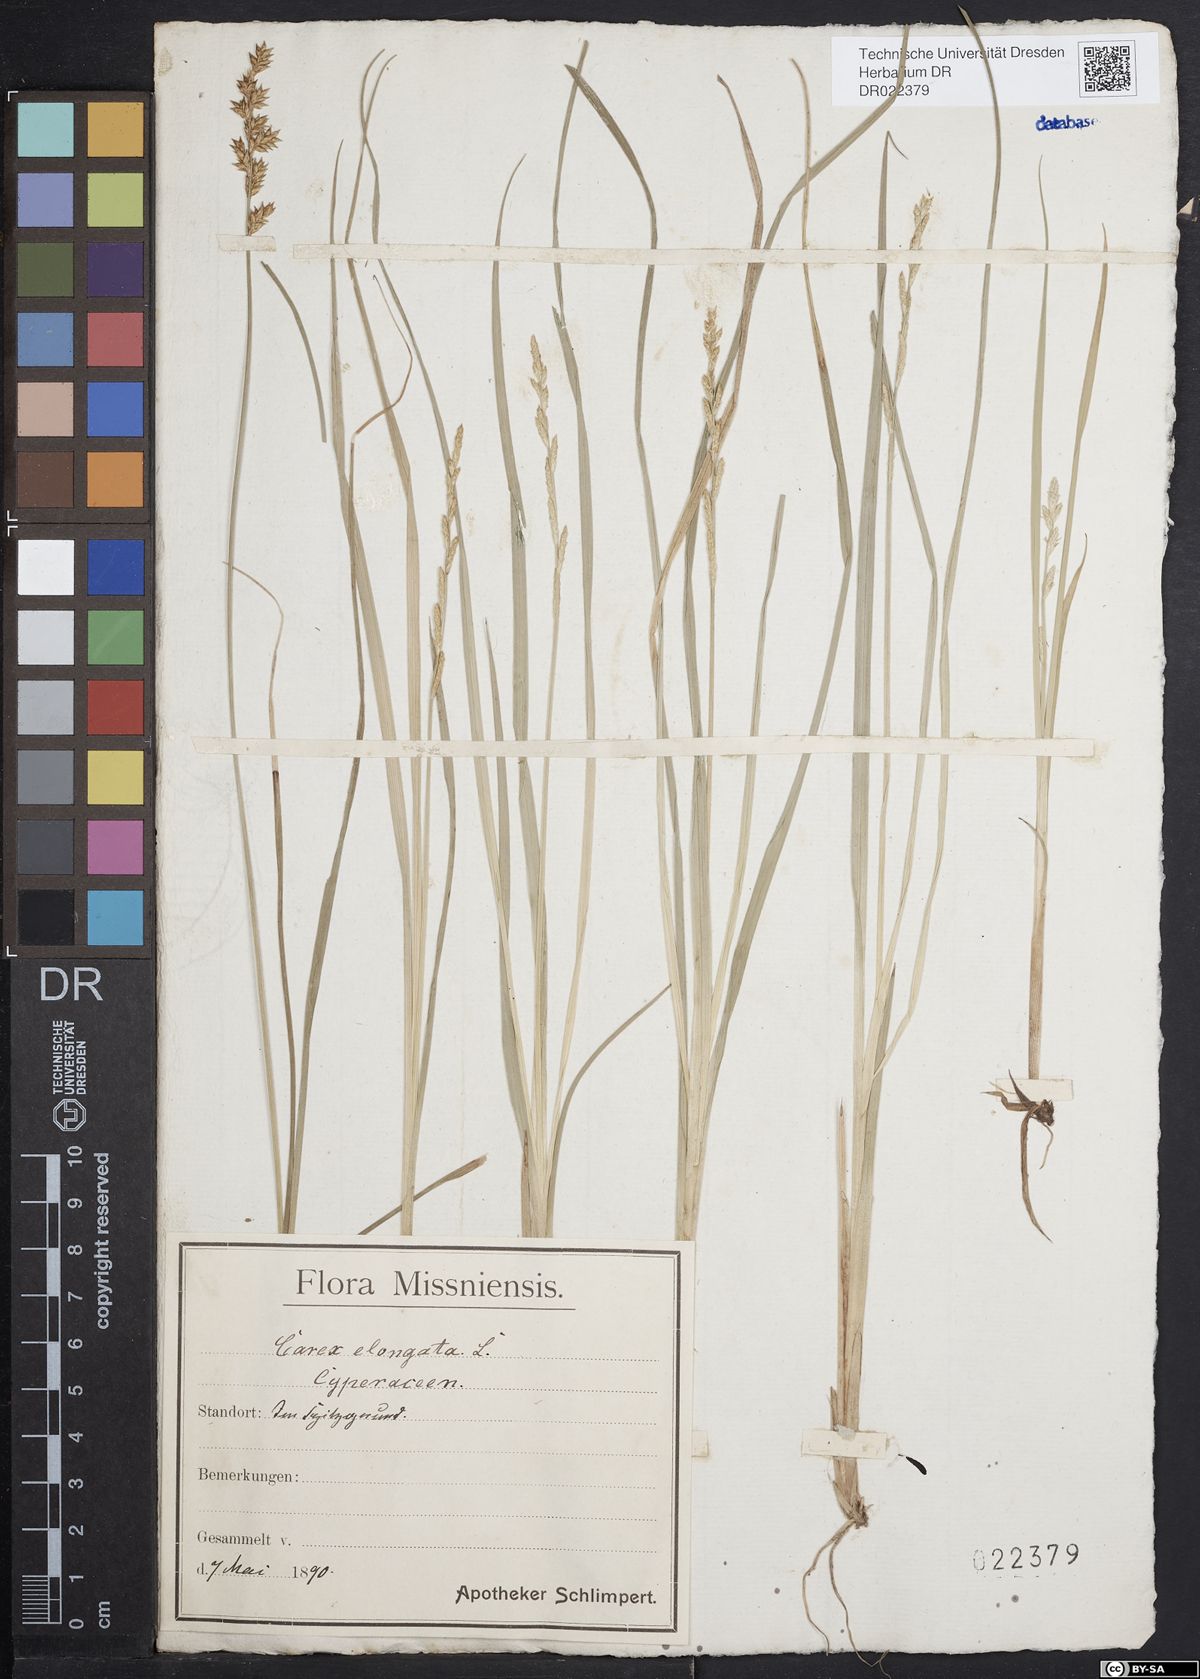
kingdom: Plantae
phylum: Tracheophyta
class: Liliopsida
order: Poales
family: Cyperaceae
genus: Carex
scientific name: Carex elongata
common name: Elongated sedge
